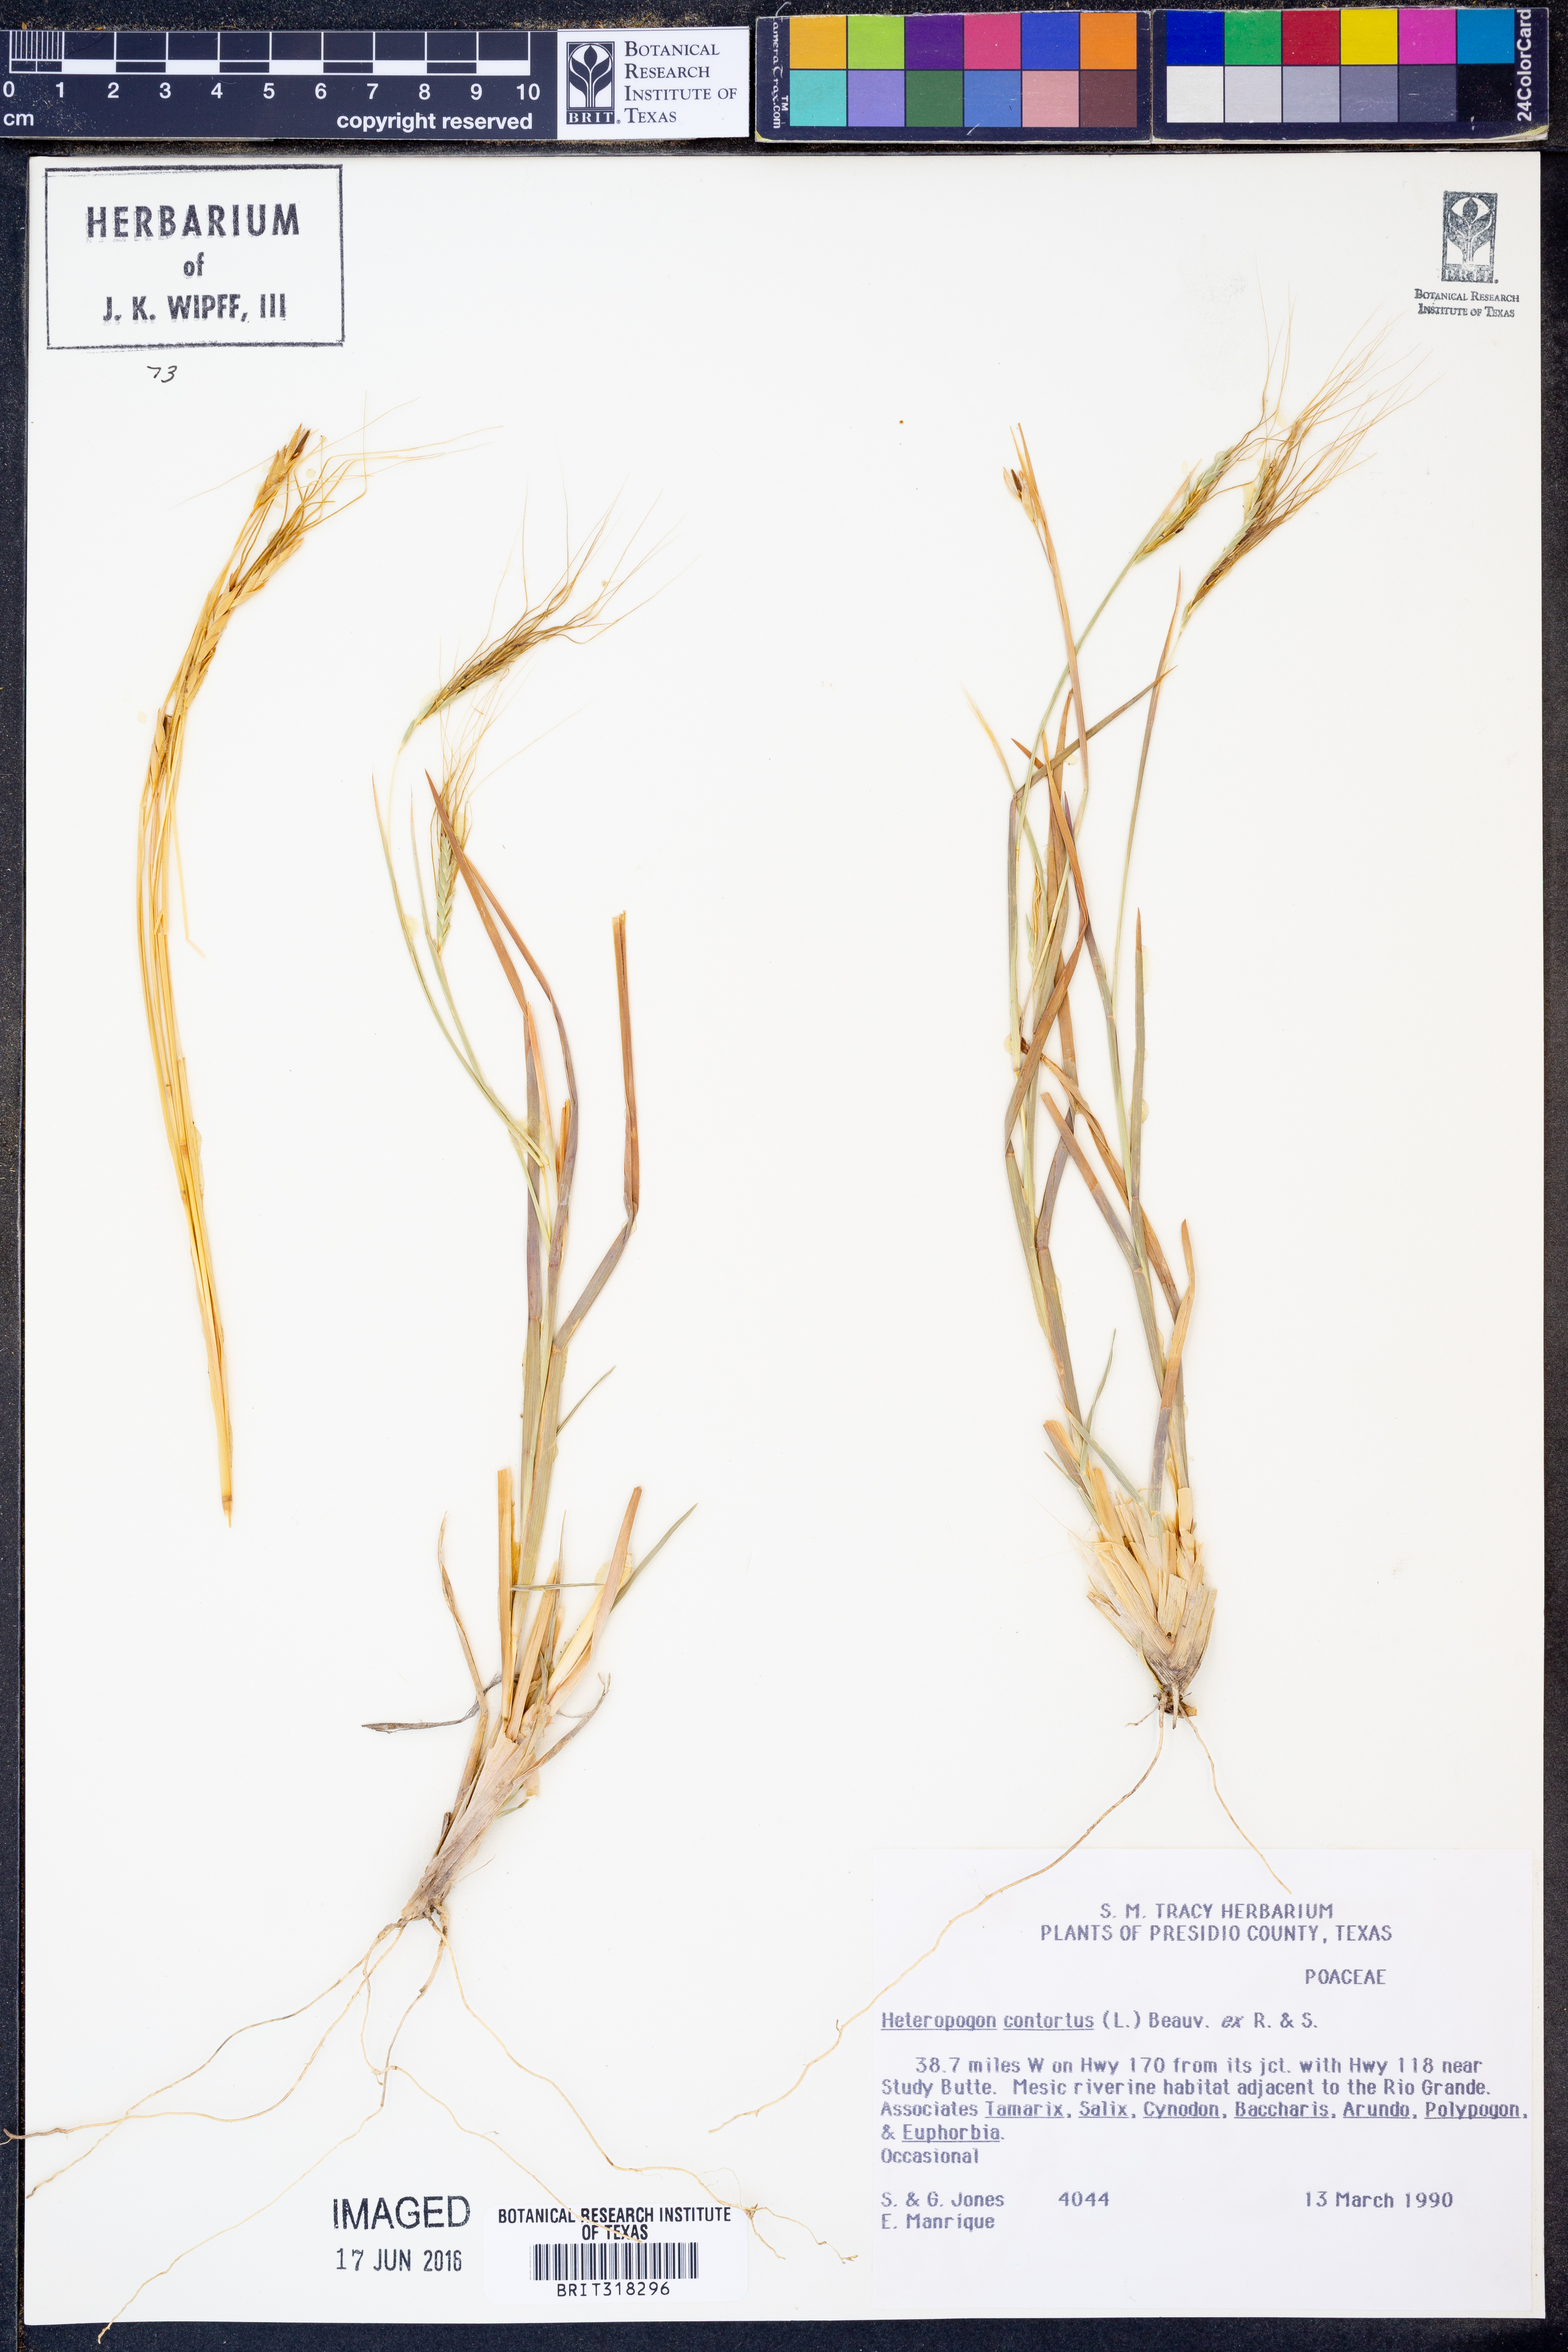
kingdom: Plantae
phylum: Tracheophyta
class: Liliopsida
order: Poales
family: Poaceae
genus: Heteropogon
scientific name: Heteropogon contortus
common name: Tanglehead
